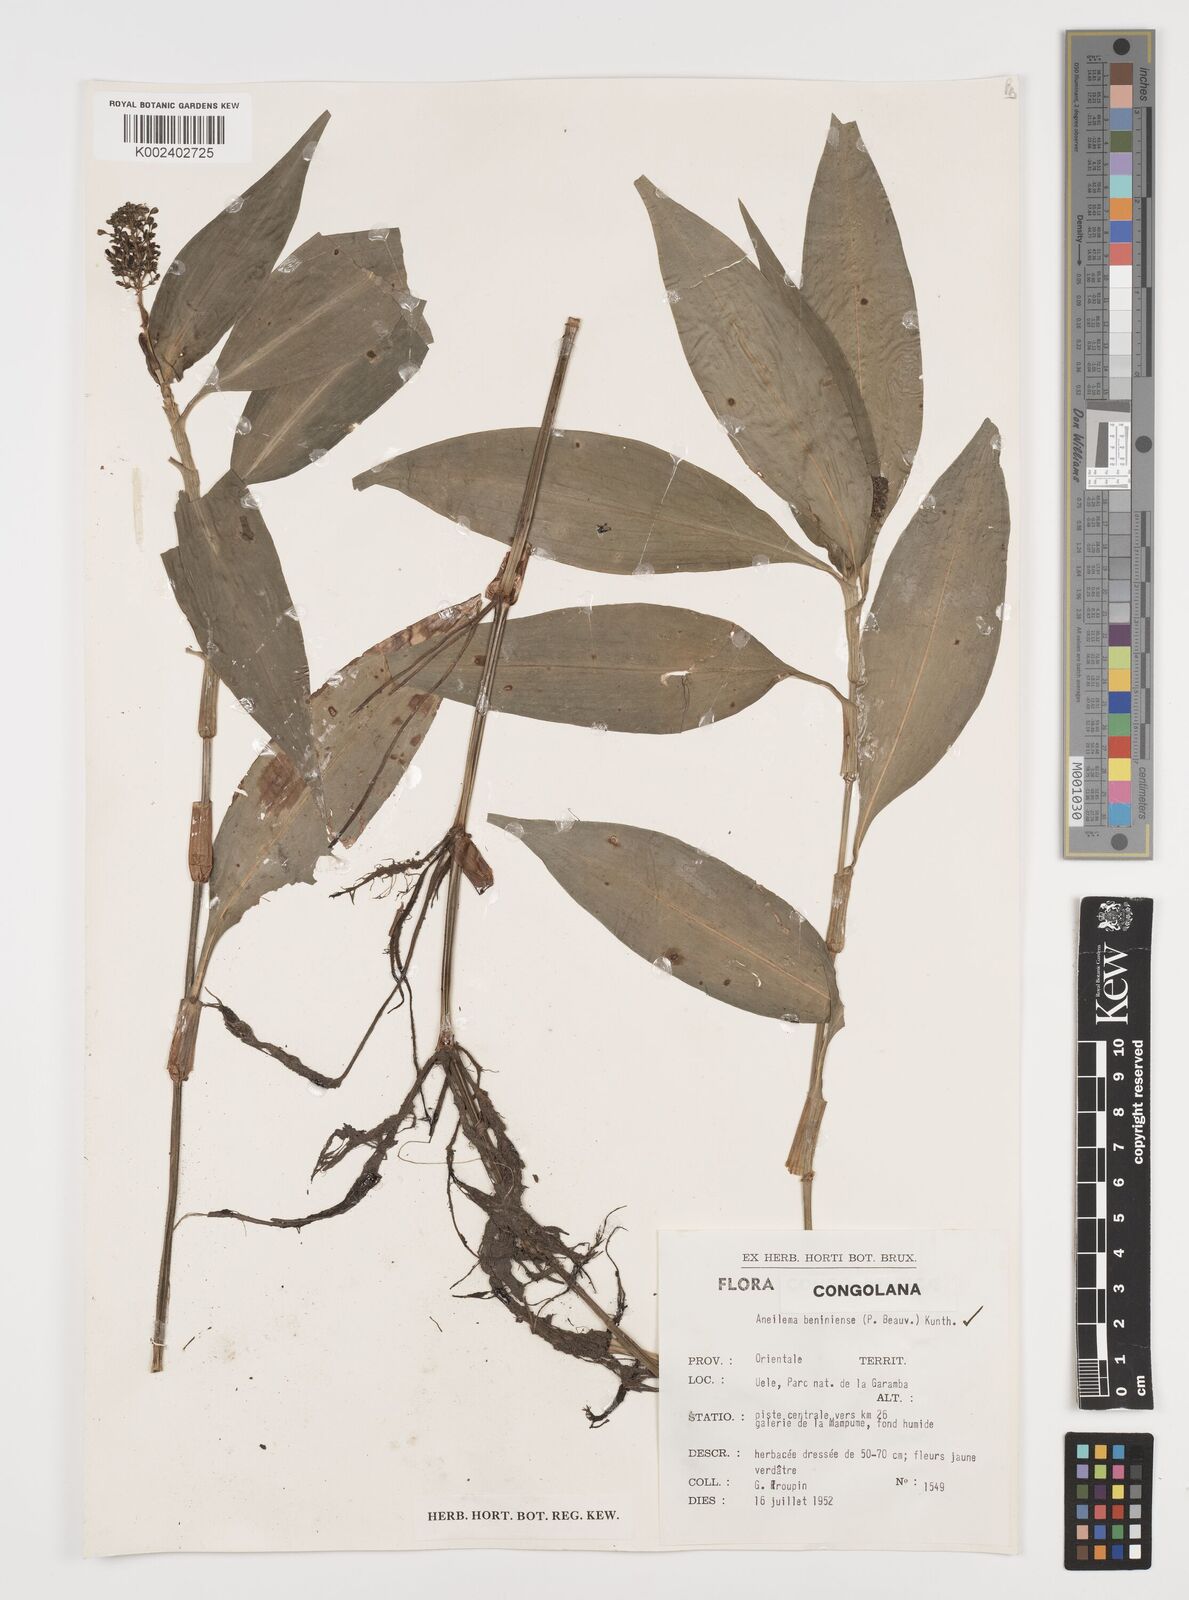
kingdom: Plantae
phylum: Tracheophyta
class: Liliopsida
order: Commelinales
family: Commelinaceae
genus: Aneilema
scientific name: Aneilema beniniense
